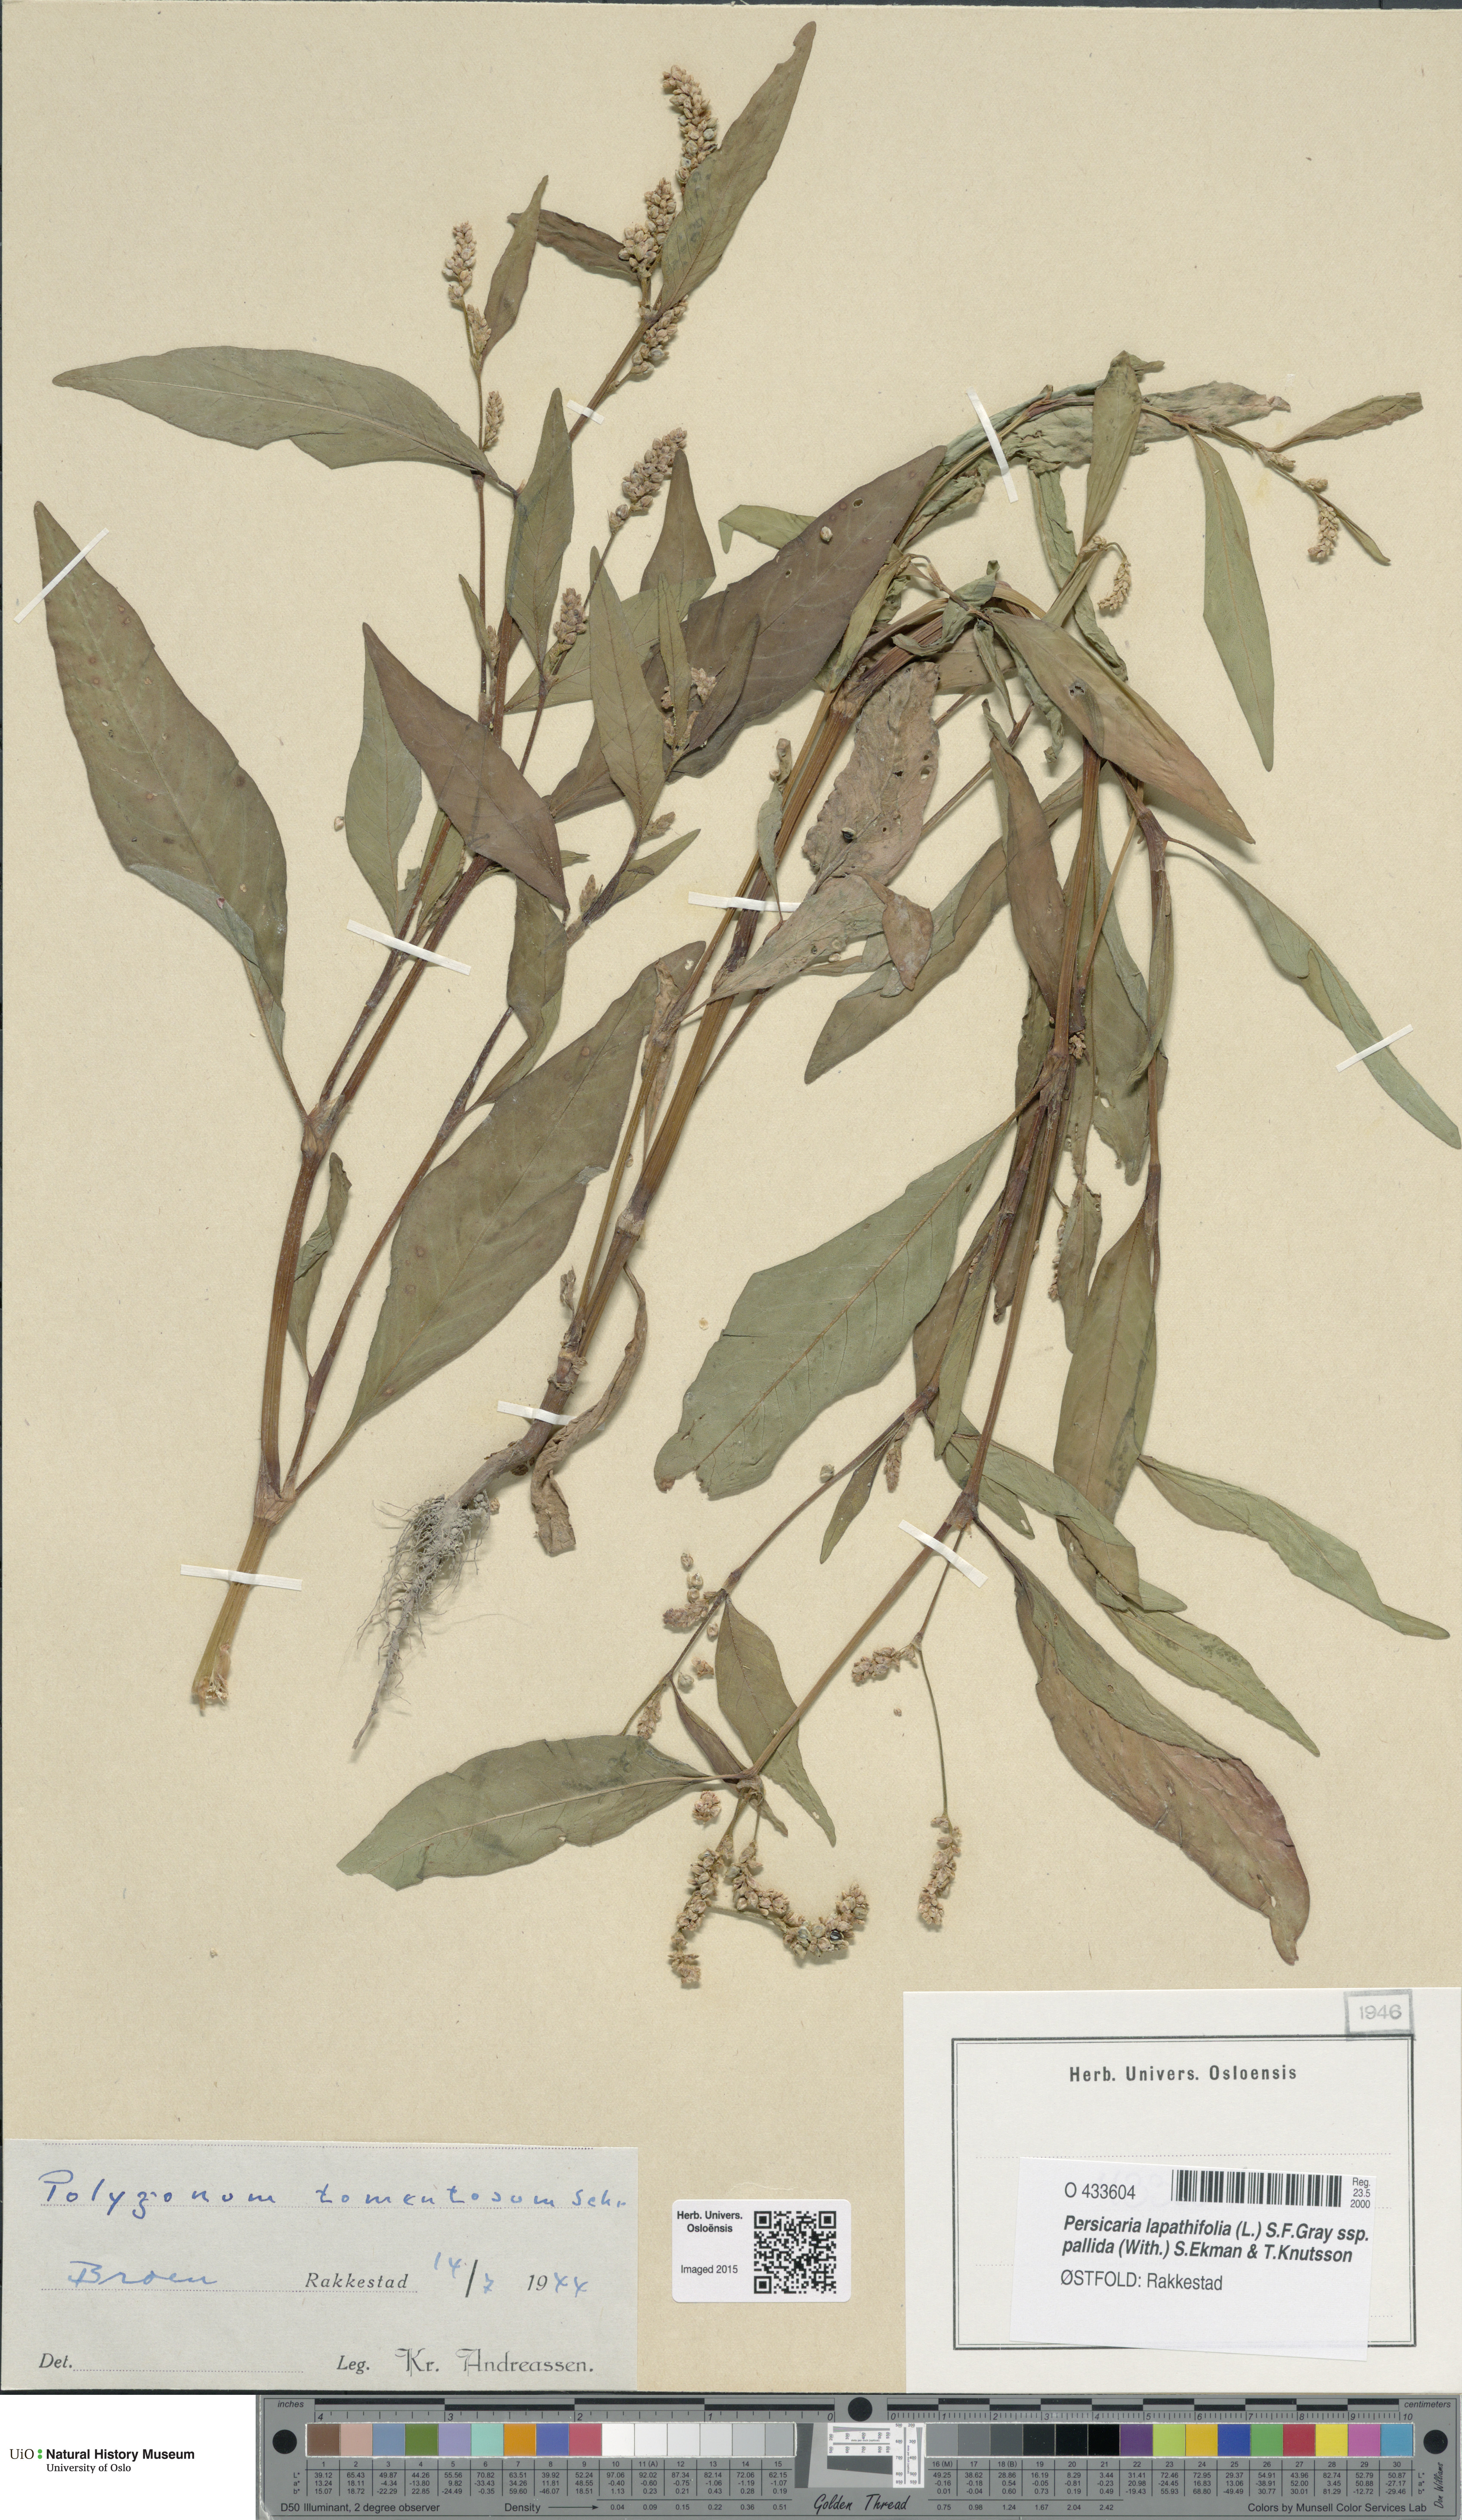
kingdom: Plantae
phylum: Tracheophyta
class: Magnoliopsida
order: Caryophyllales
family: Polygonaceae
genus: Persicaria
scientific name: Persicaria lapathifolia
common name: Curlytop knotweed
